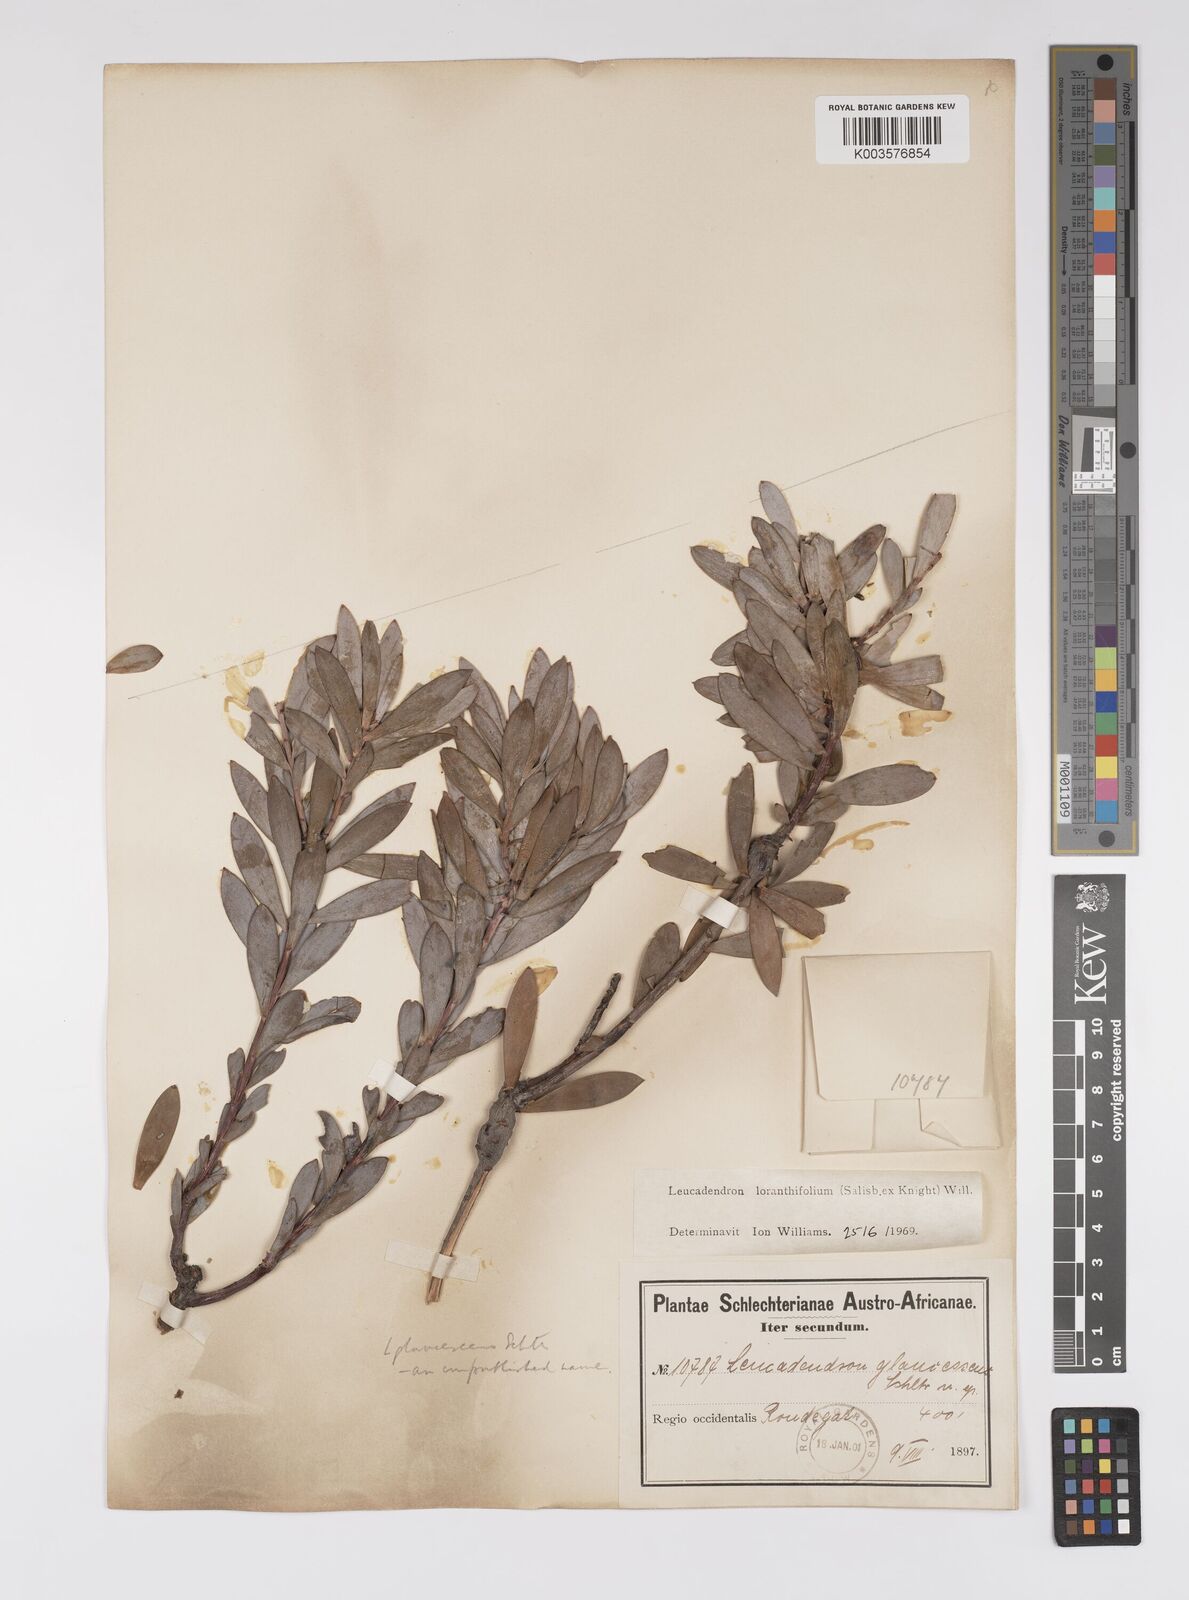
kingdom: Plantae
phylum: Tracheophyta
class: Magnoliopsida
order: Proteales
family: Proteaceae
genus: Leucadendron
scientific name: Leucadendron loranthifolium
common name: Green-flower sunbush
